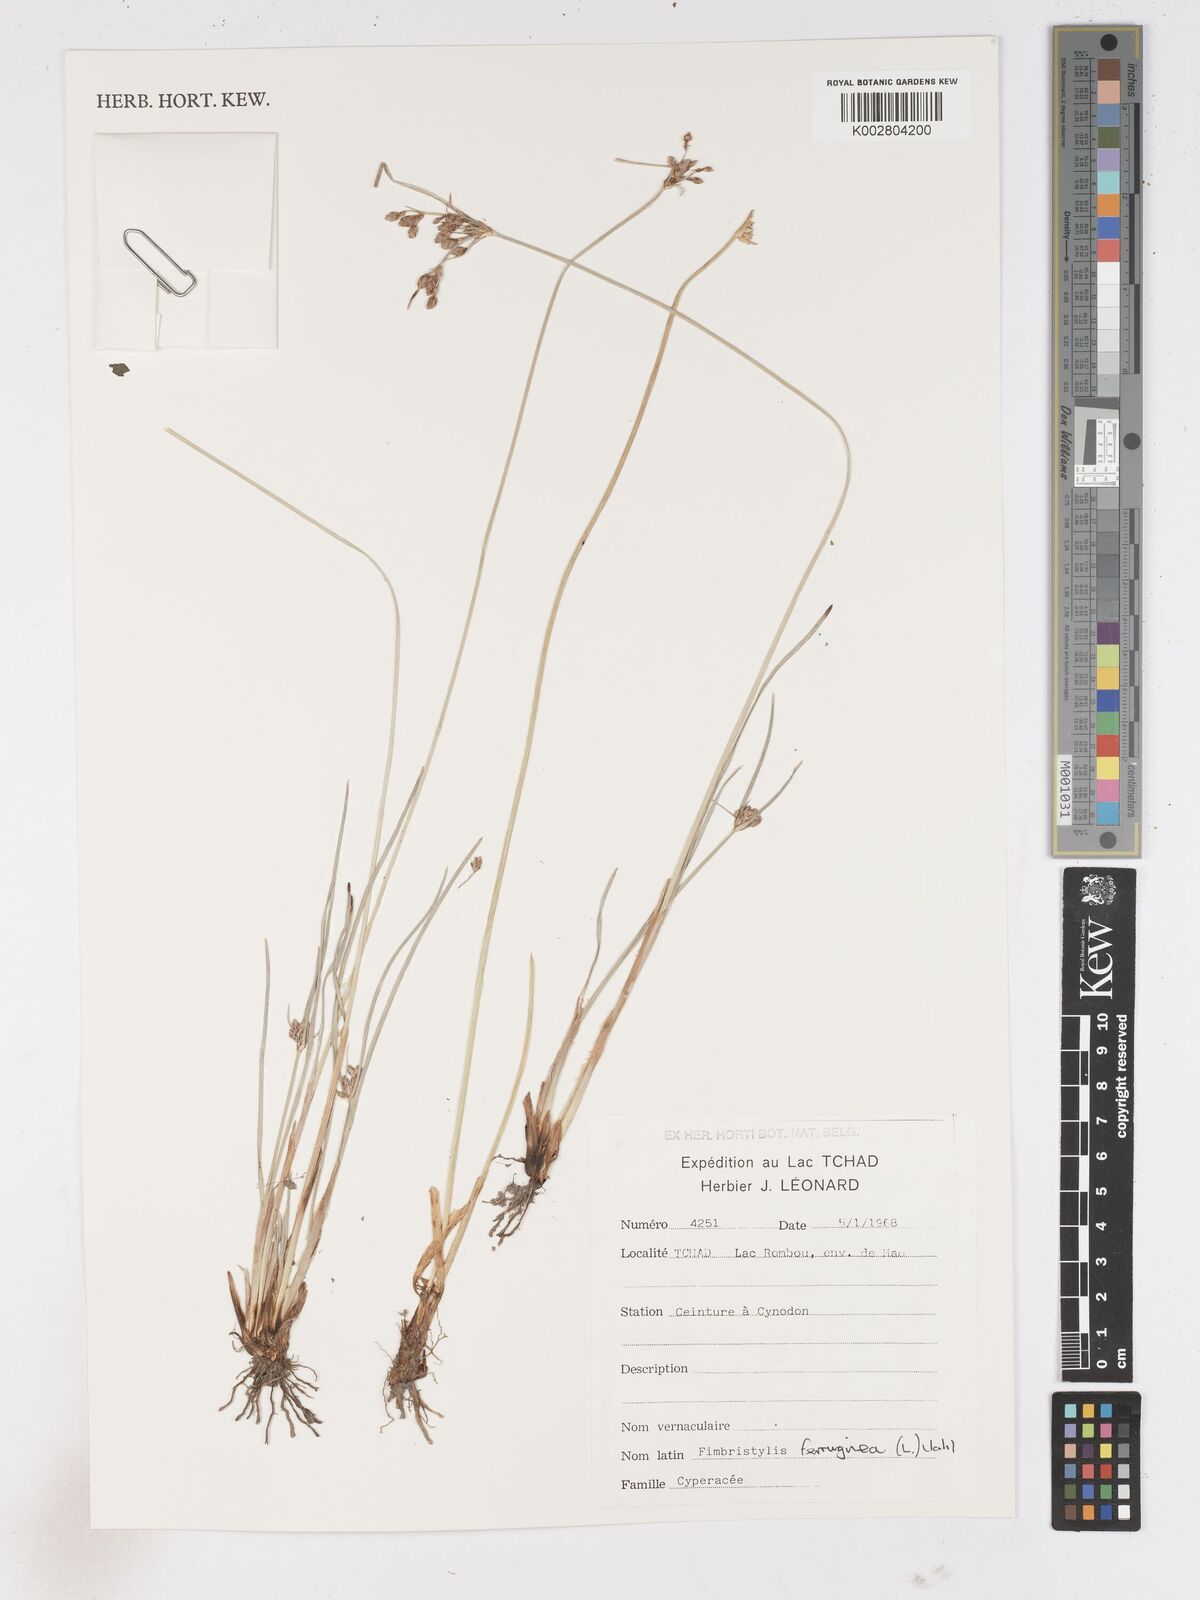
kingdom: Plantae
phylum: Tracheophyta
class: Liliopsida
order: Poales
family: Cyperaceae
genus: Fimbristylis
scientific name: Fimbristylis ferruginea
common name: West indian fimbry
